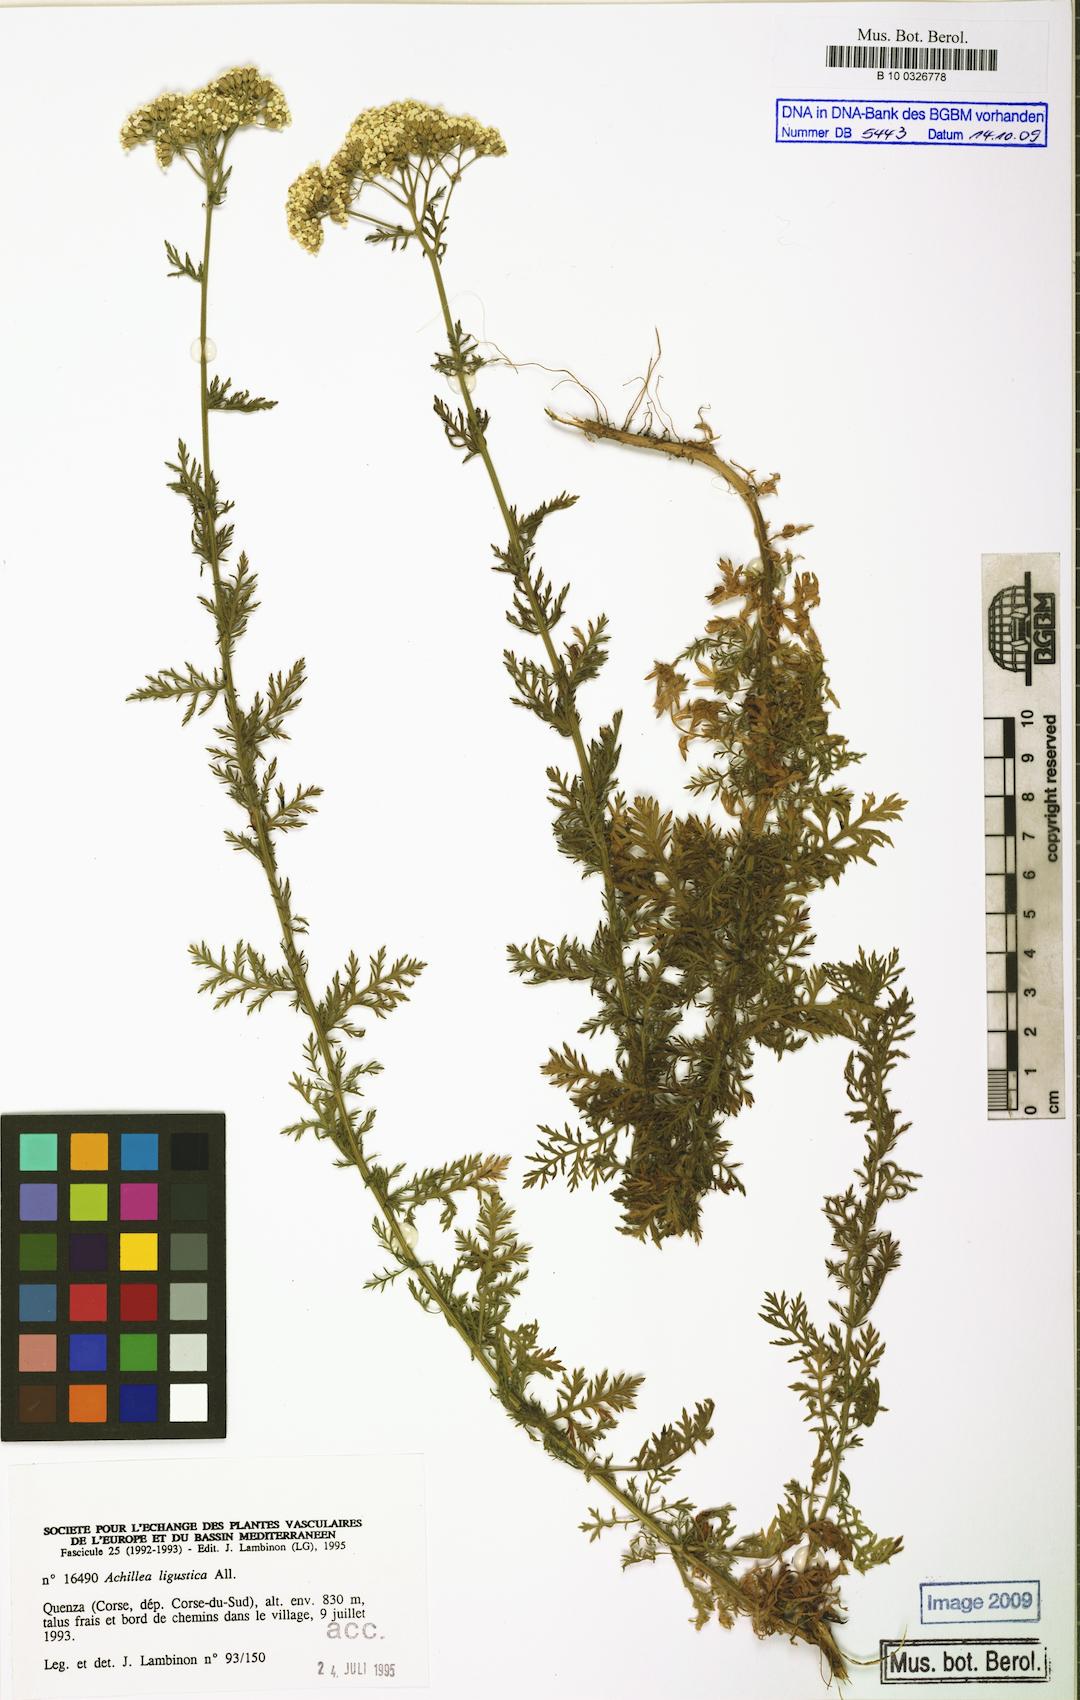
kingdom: Plantae
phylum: Tracheophyta
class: Magnoliopsida
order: Asterales
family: Asteraceae
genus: Achillea
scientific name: Achillea ligustica
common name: Southern yarrow
